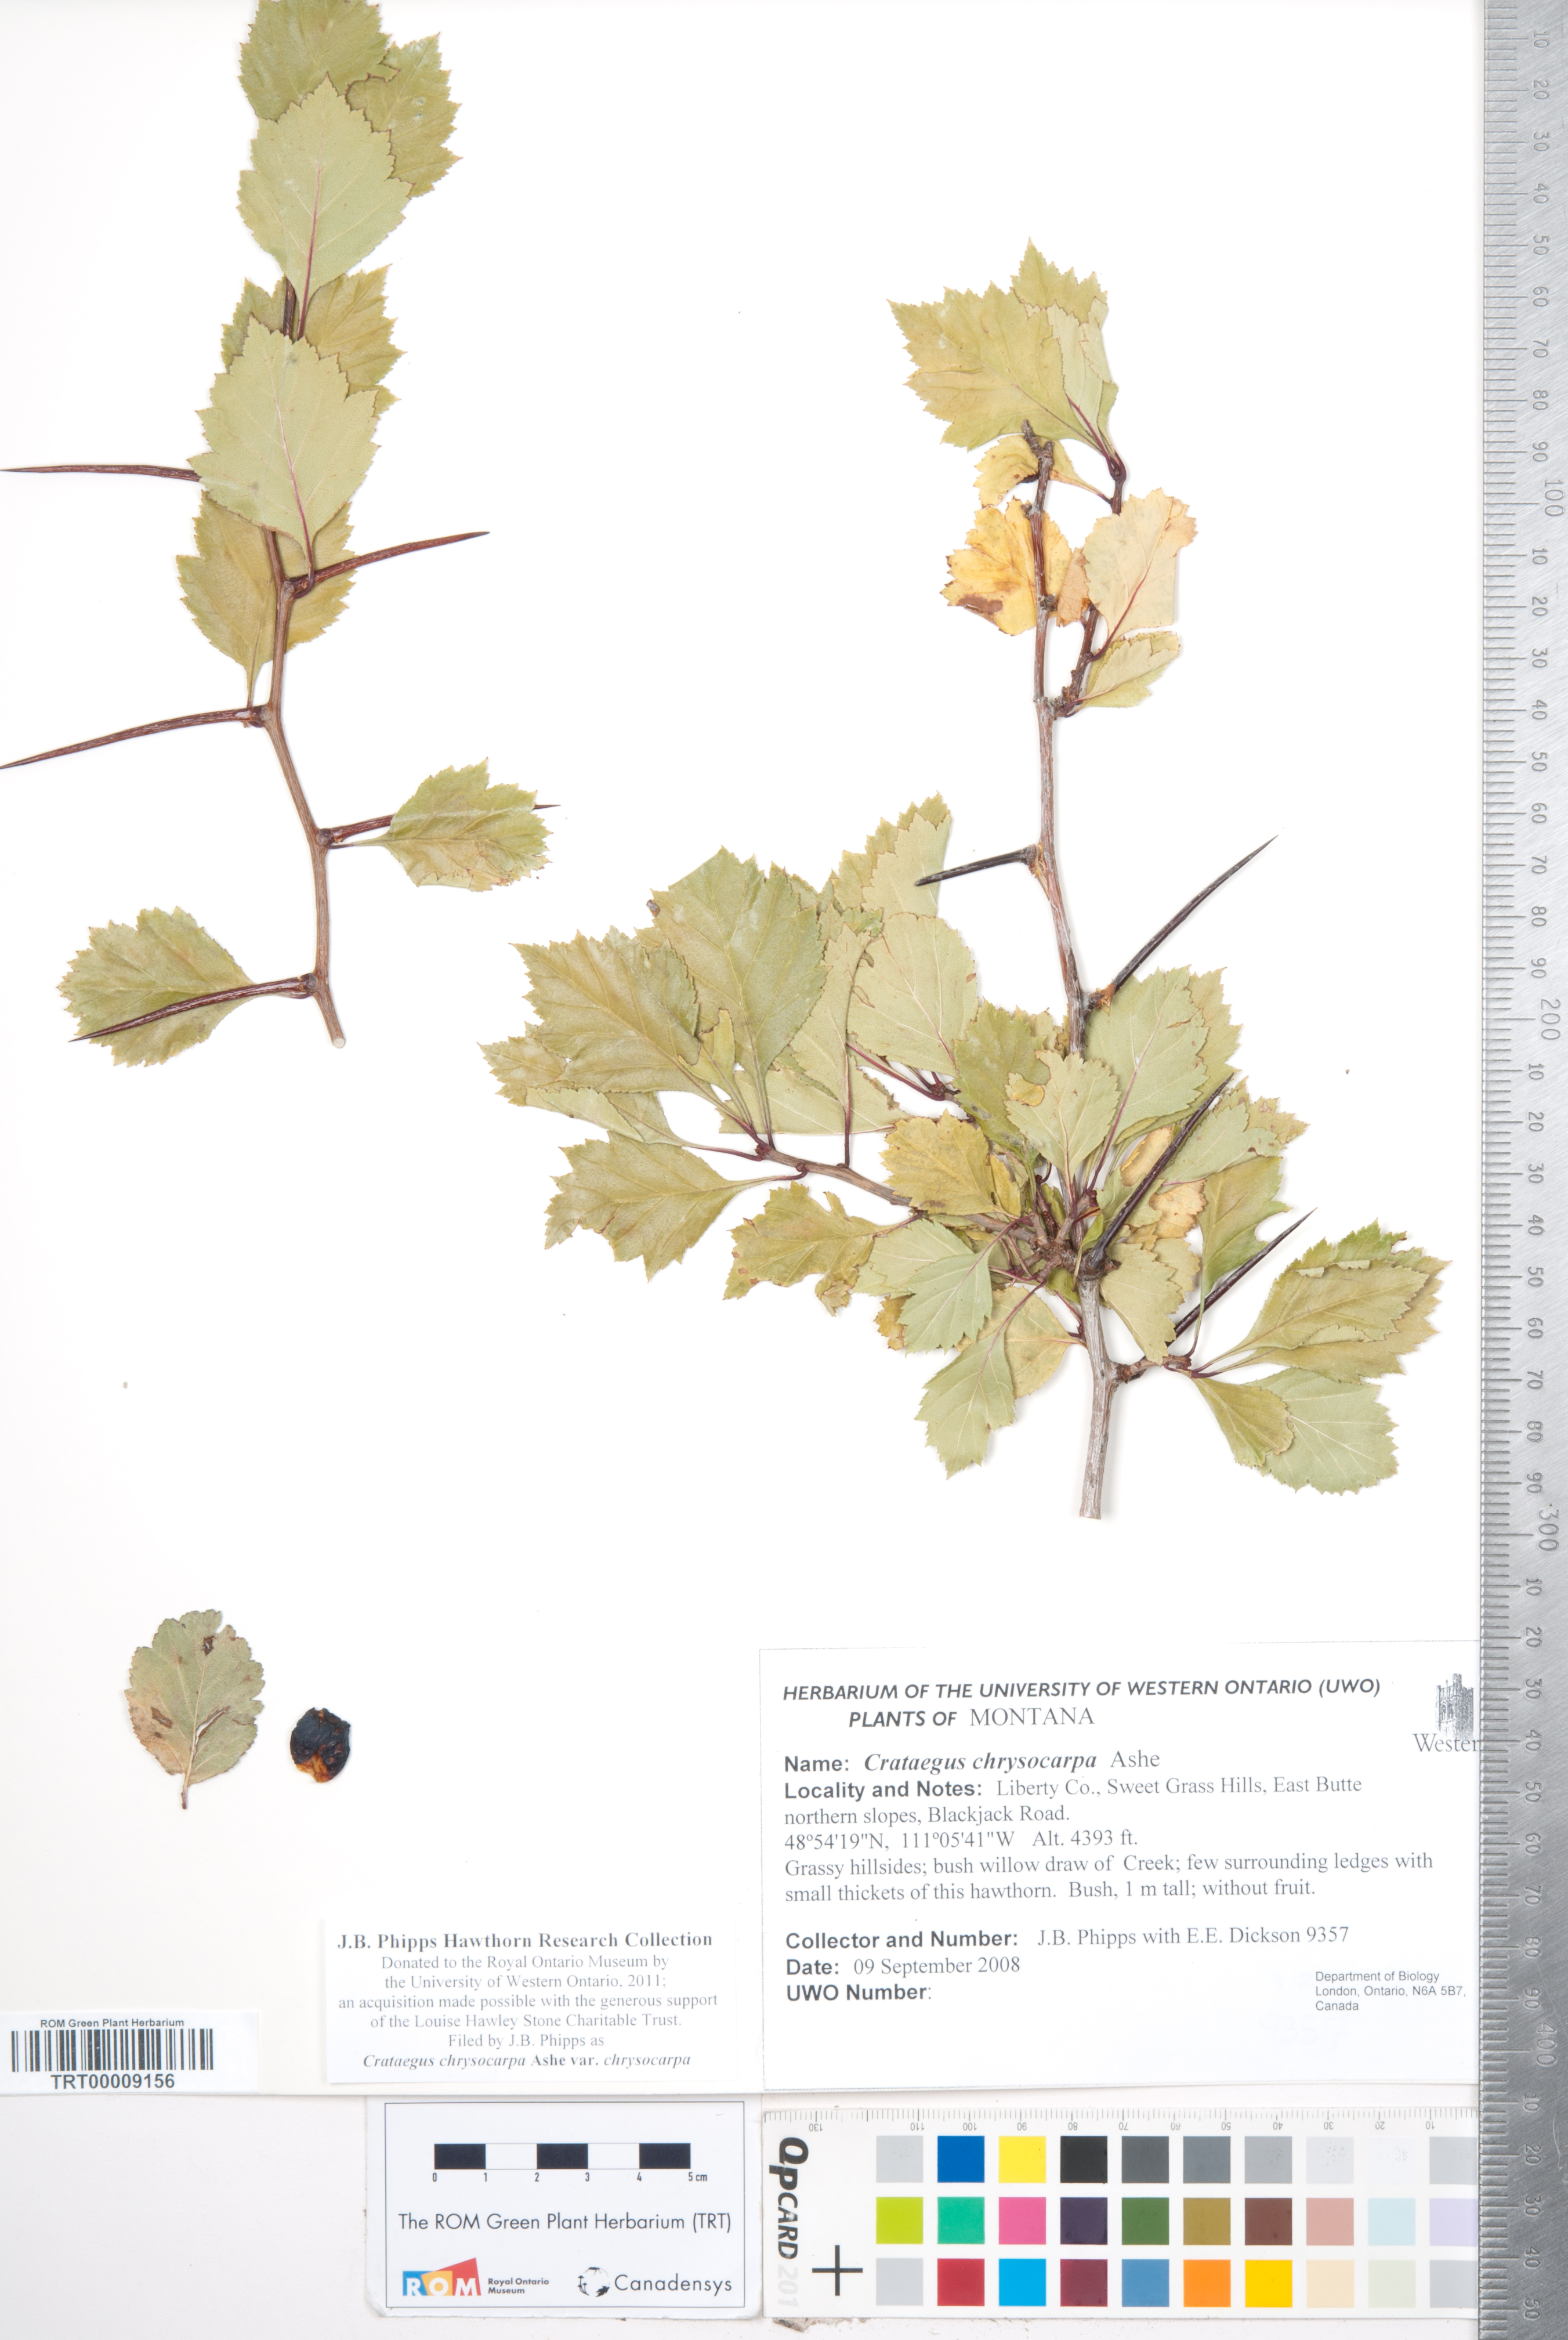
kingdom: Plantae
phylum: Tracheophyta
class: Magnoliopsida
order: Rosales
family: Rosaceae
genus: Crataegus
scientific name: Crataegus chrysocarpa
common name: Fire-berry hawthorn
